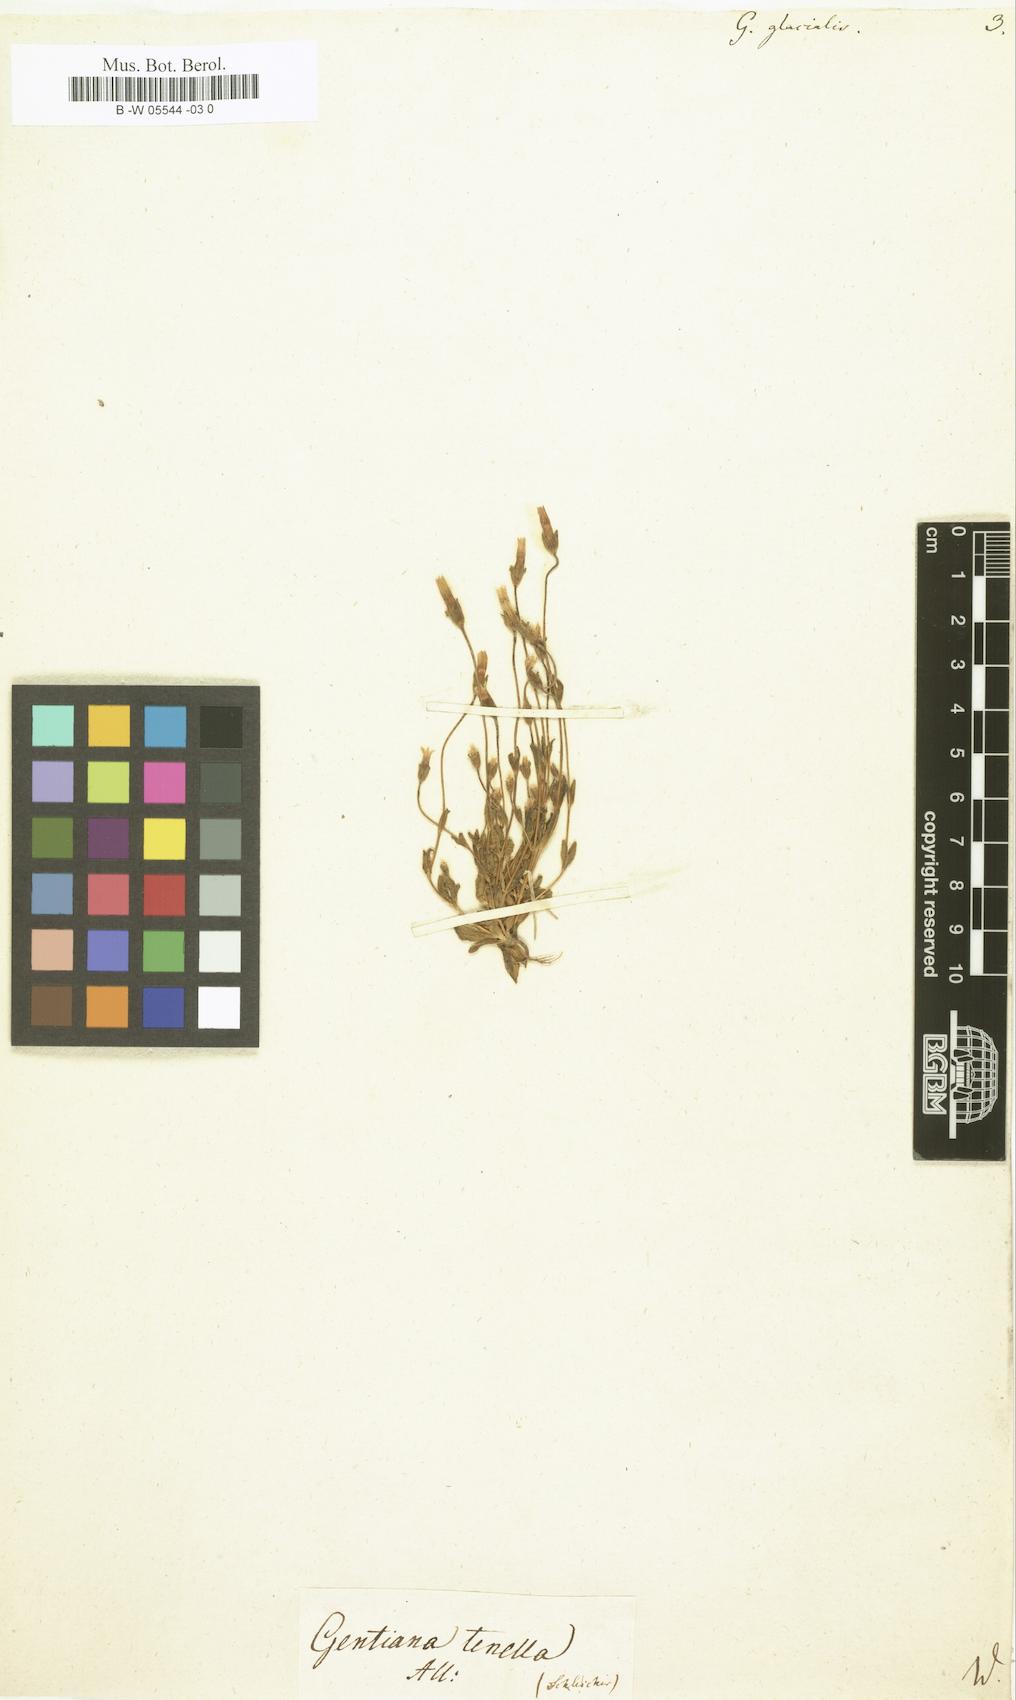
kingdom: Plantae
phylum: Tracheophyta
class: Magnoliopsida
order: Gentianales
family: Gentianaceae
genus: Comastoma
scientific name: Comastoma tenellum
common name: Dane's dwarf gentian
